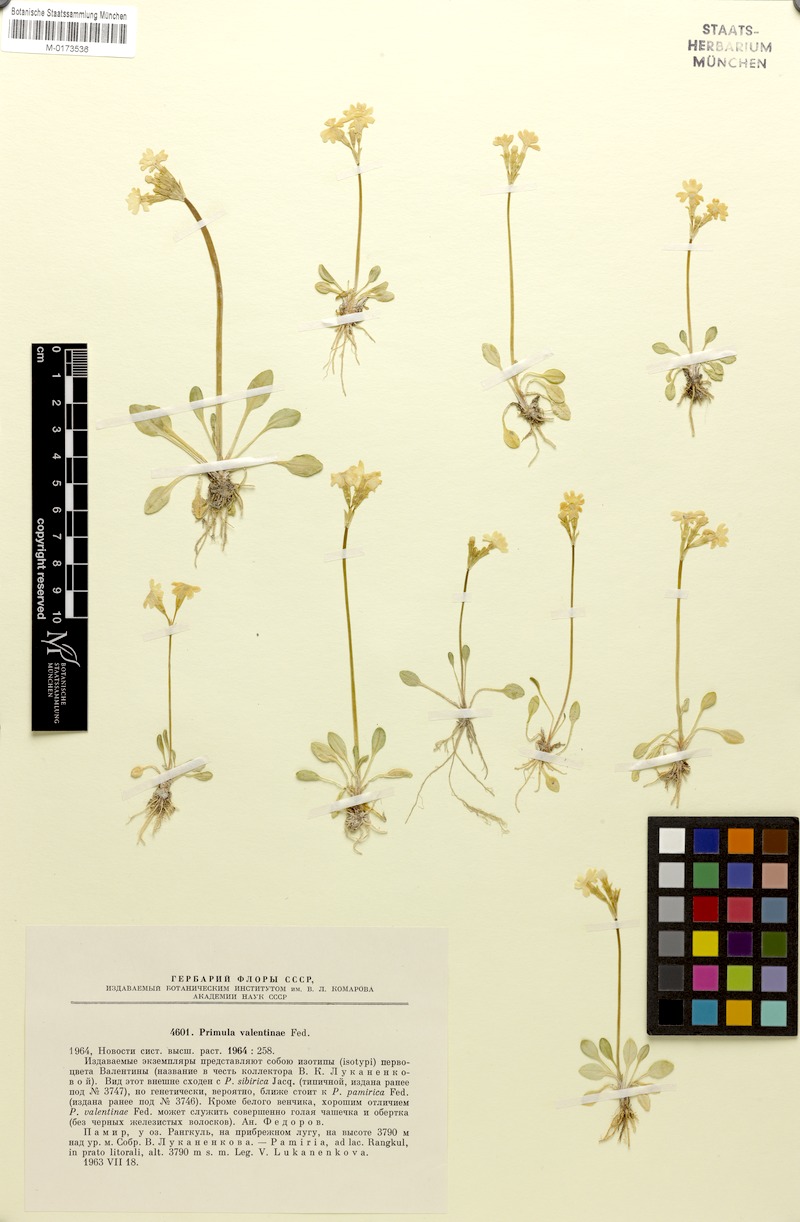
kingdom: Plantae
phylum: Tracheophyta
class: Magnoliopsida
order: Ericales
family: Primulaceae
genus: Primula
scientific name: Primula pamirica
